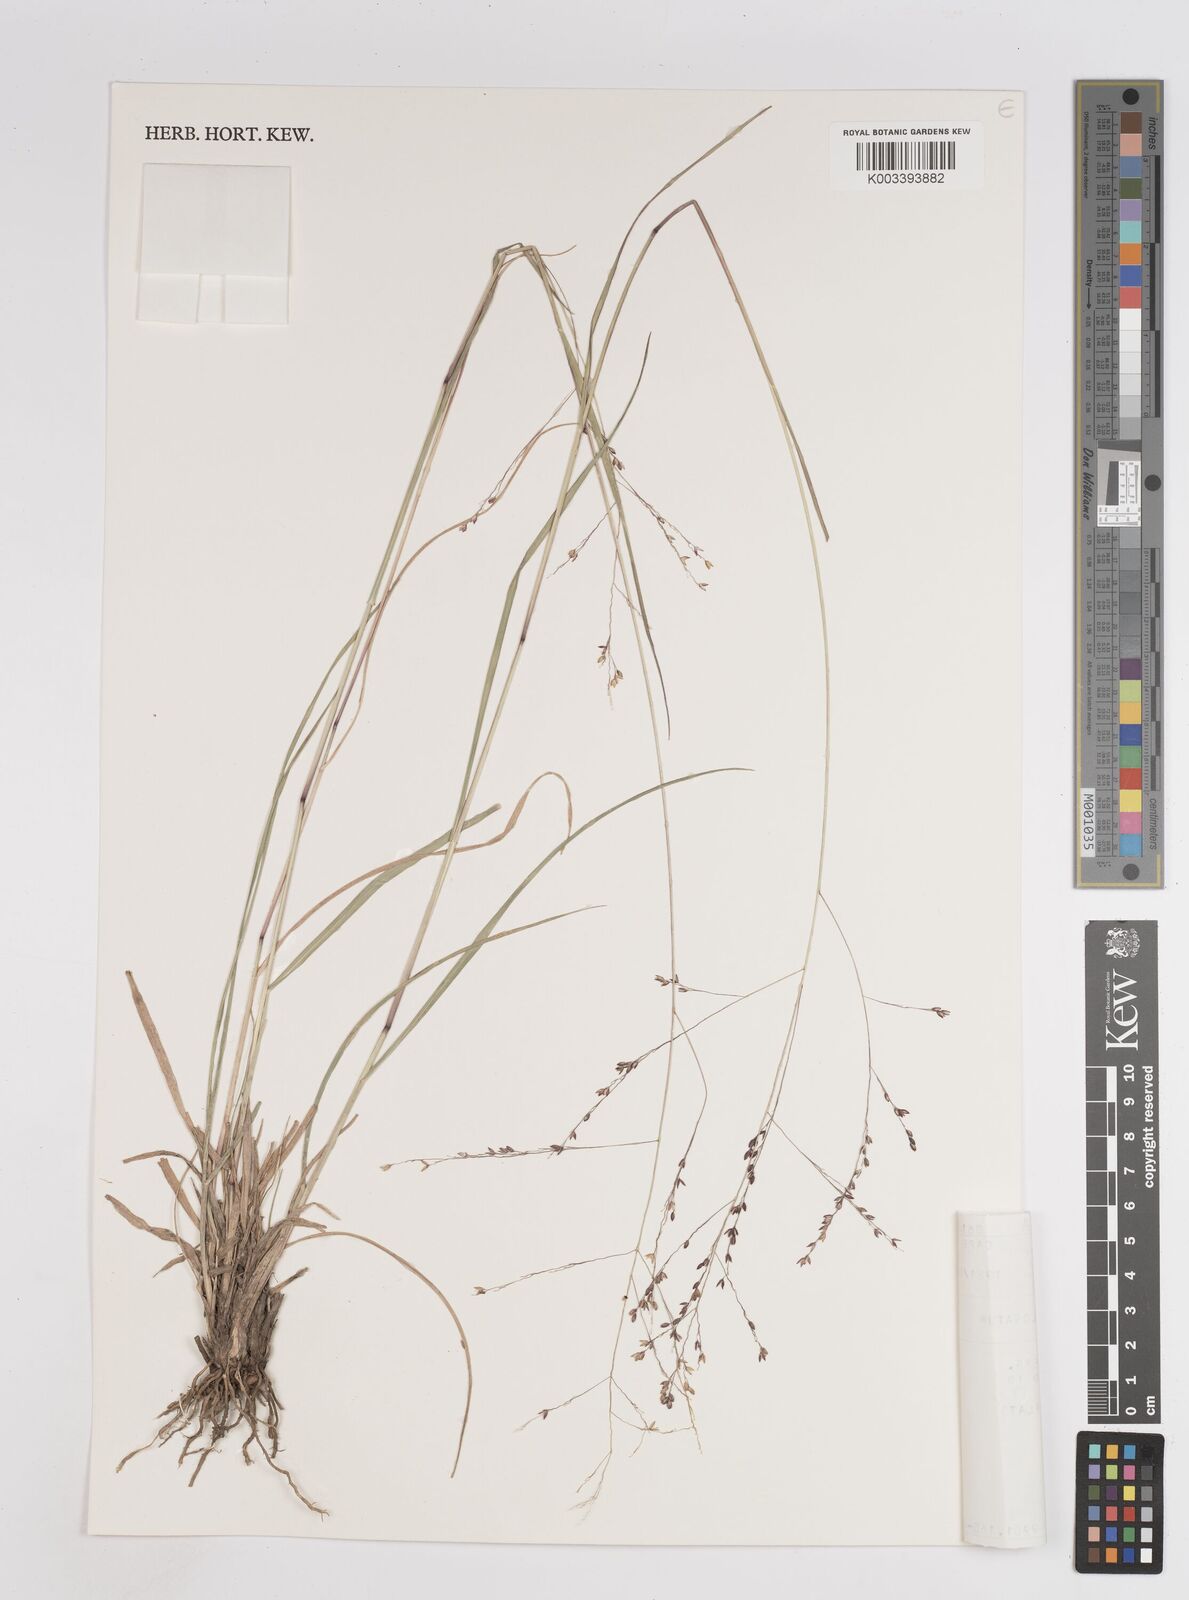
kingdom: Plantae
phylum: Tracheophyta
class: Liliopsida
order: Poales
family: Poaceae
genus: Panicum
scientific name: Panicum
